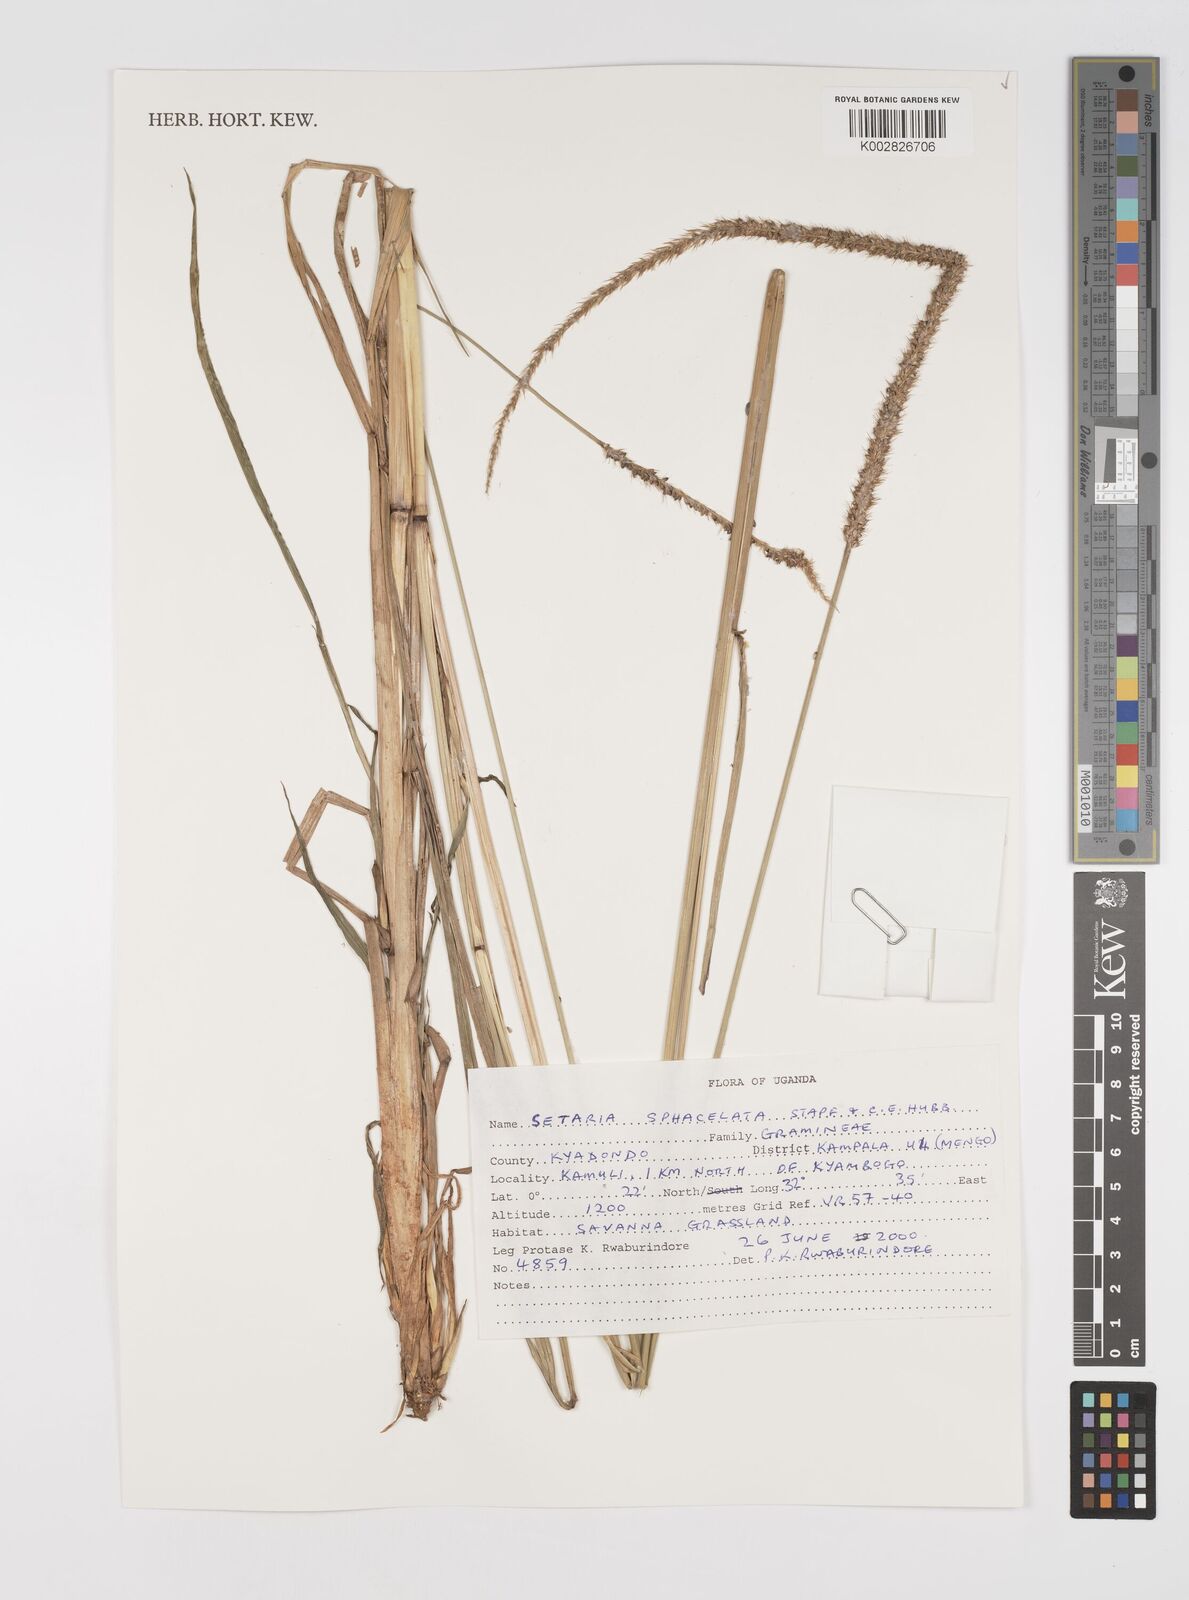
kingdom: Plantae
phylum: Tracheophyta
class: Liliopsida
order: Poales
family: Poaceae
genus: Setaria
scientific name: Setaria sphacelata
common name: African bristlegrass
